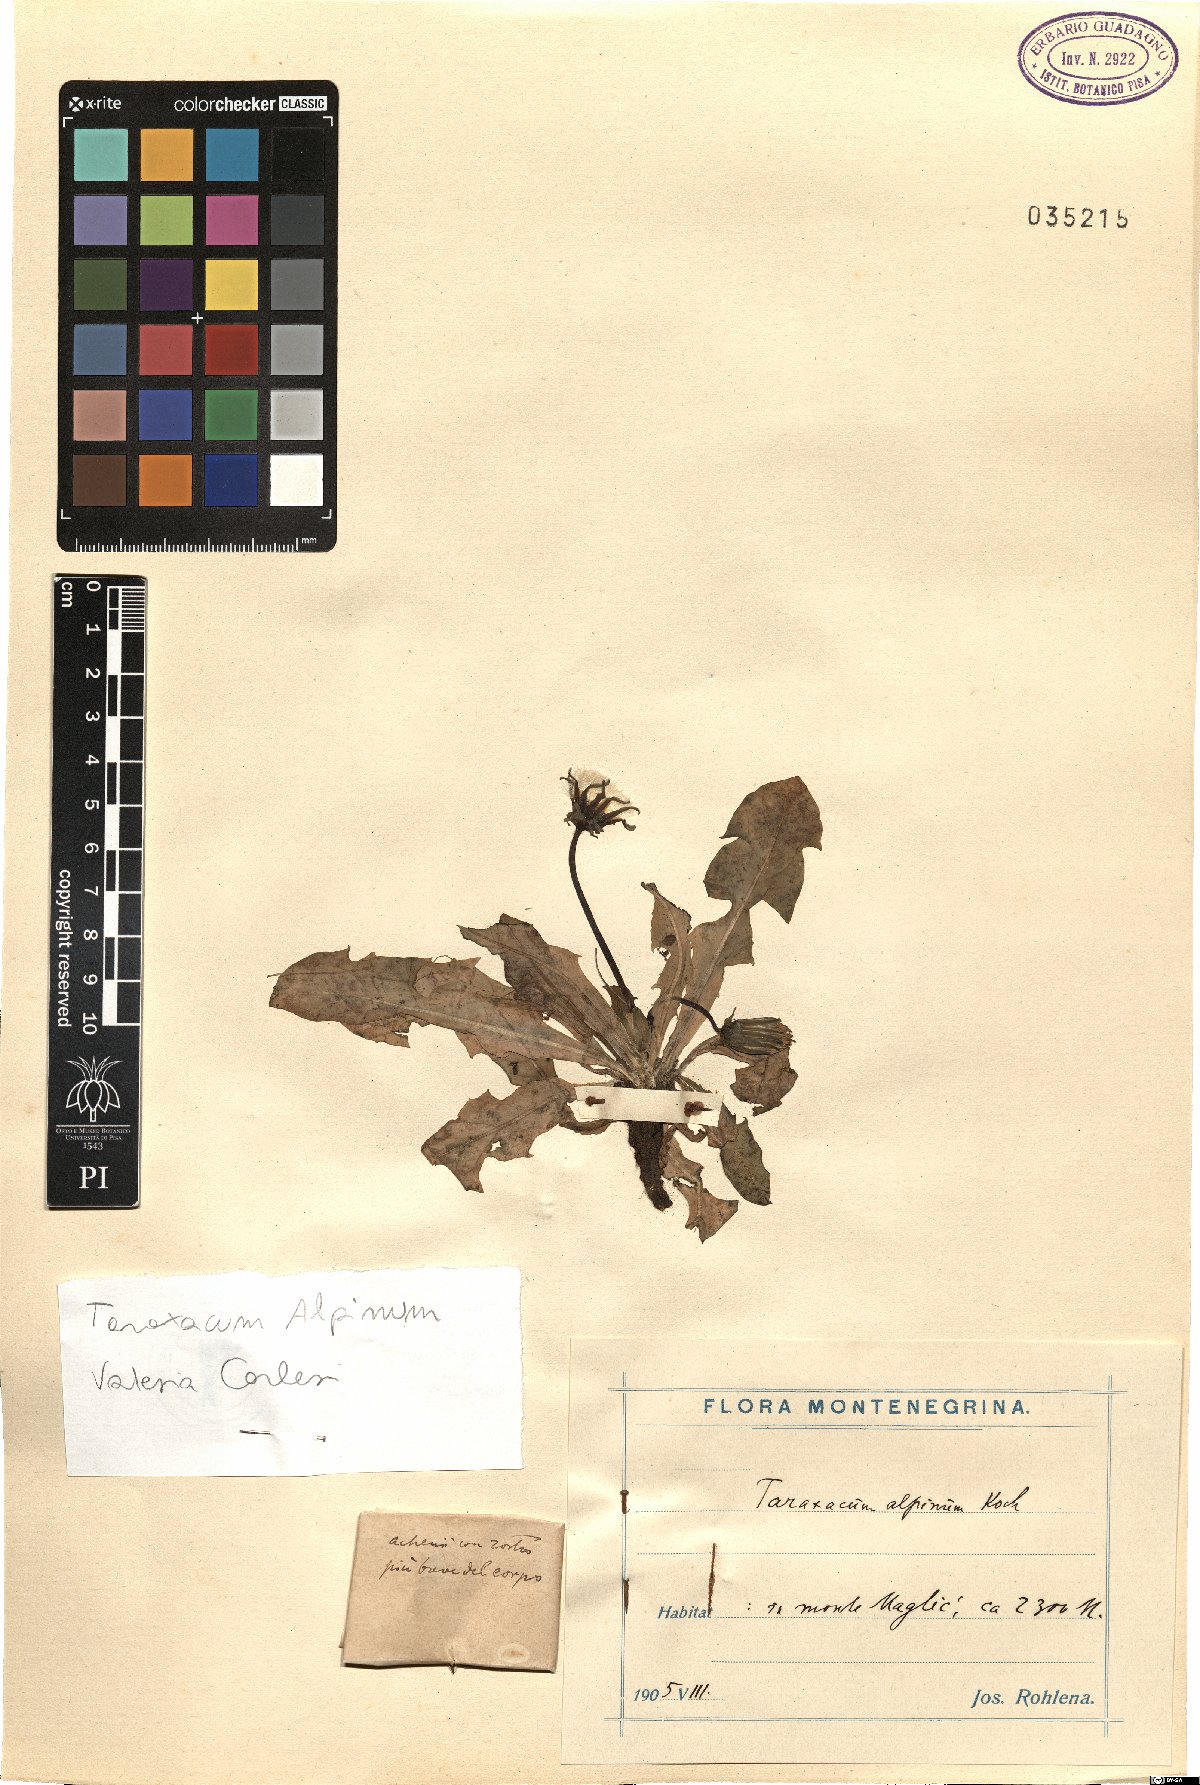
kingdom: Plantae
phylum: Tracheophyta
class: Magnoliopsida
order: Asterales
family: Asteraceae
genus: Taraxacum
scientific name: Taraxacum alpinum
